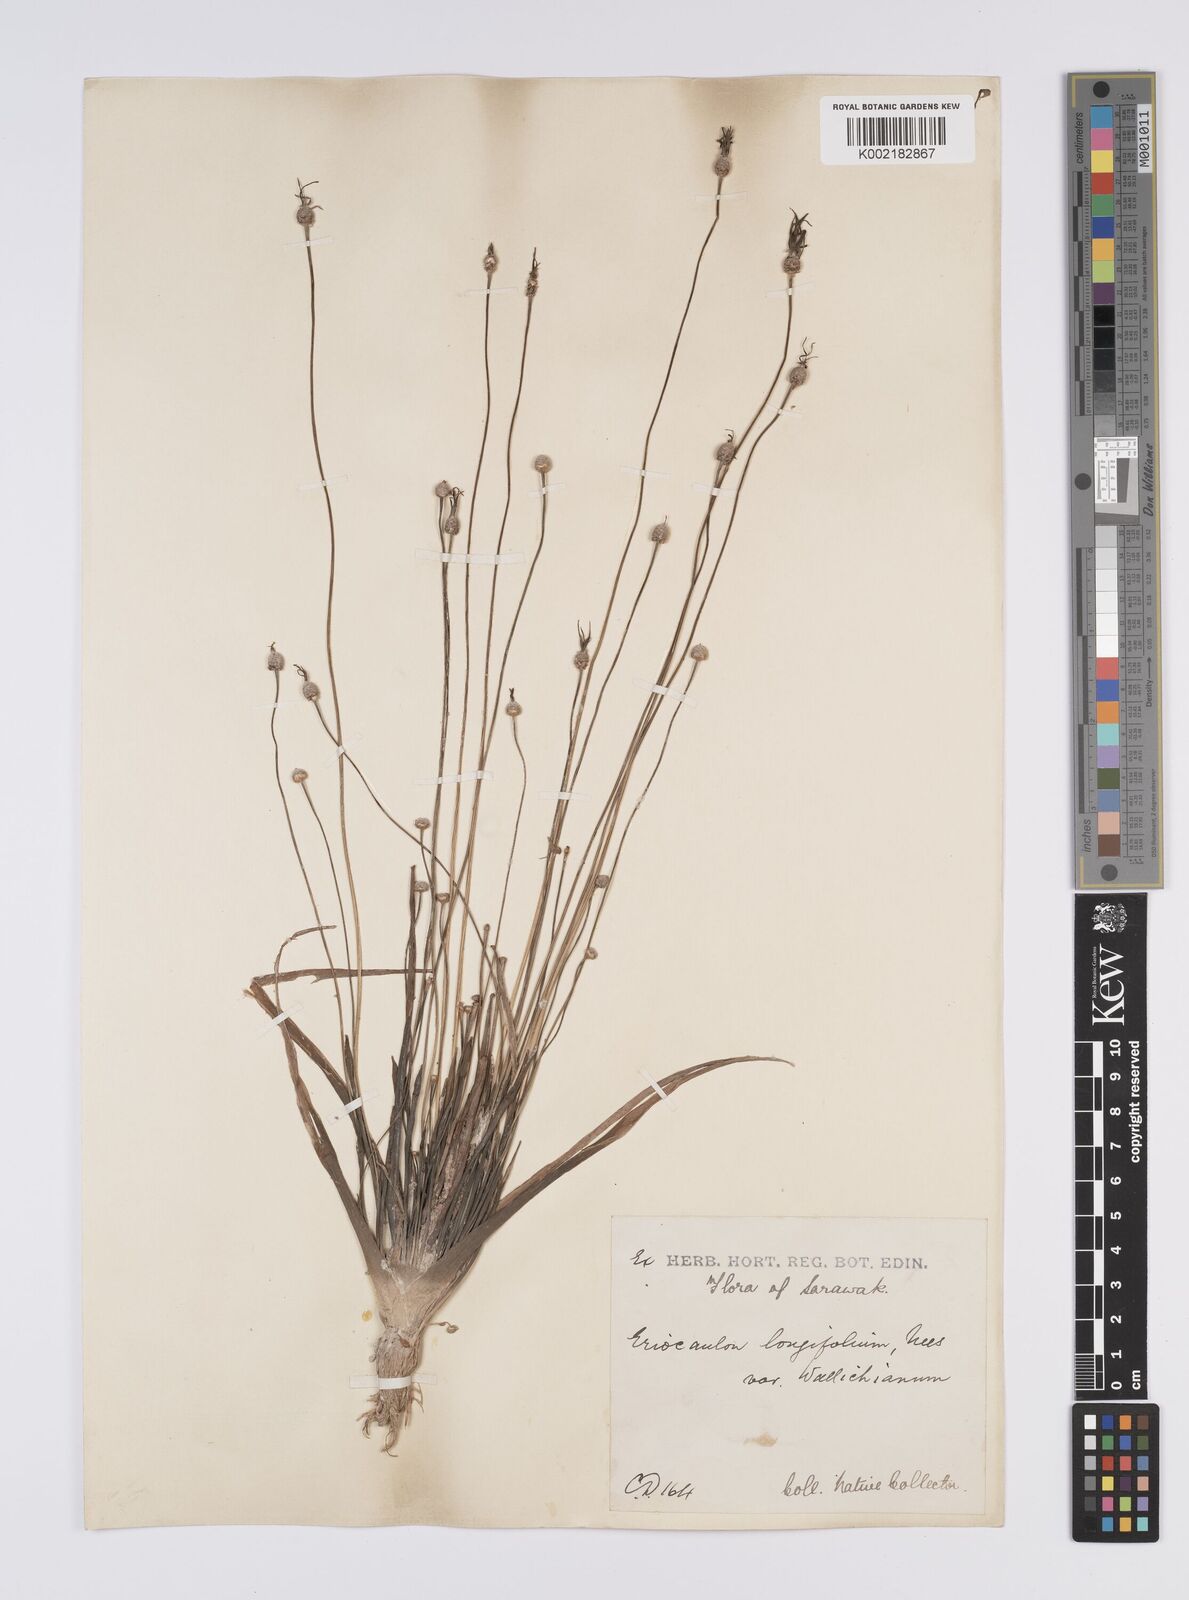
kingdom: Plantae
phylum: Tracheophyta
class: Liliopsida
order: Poales
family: Eriocaulaceae
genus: Eriocaulon
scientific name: Eriocaulon willdenovianum
